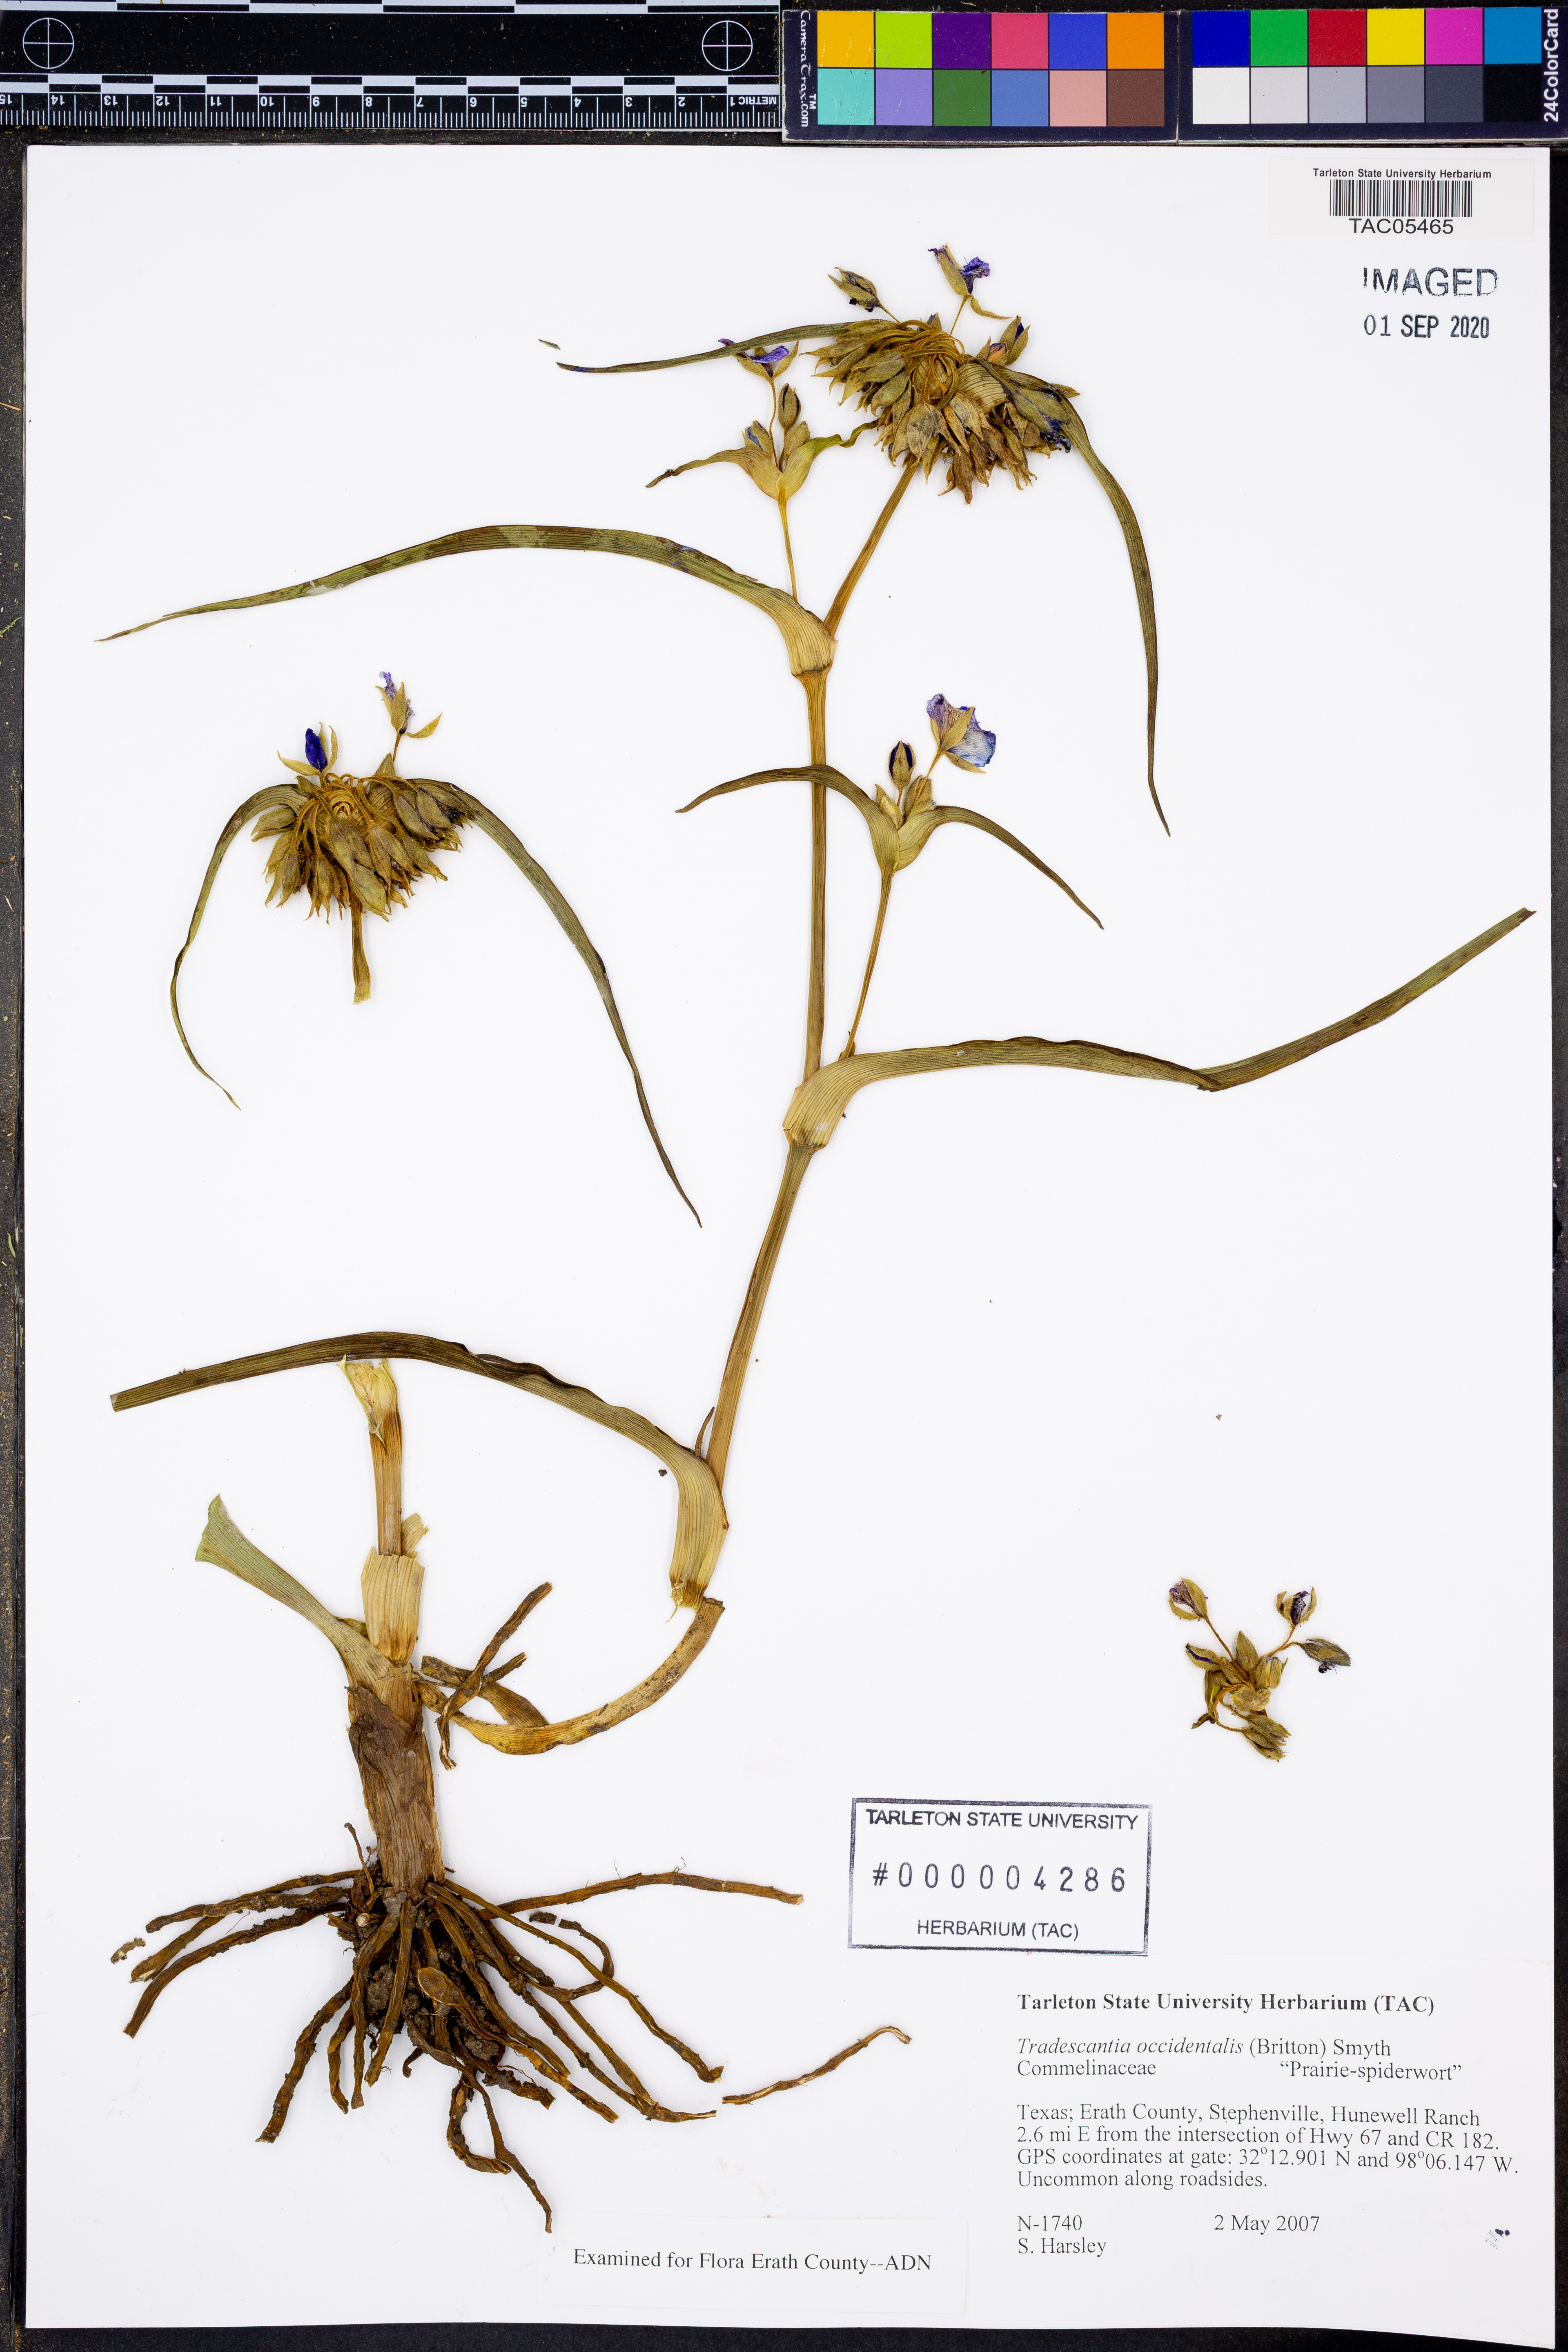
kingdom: Plantae
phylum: Tracheophyta
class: Liliopsida
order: Commelinales
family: Commelinaceae
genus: Tradescantia
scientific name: Tradescantia occidentalis
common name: Prairie spiderwort
